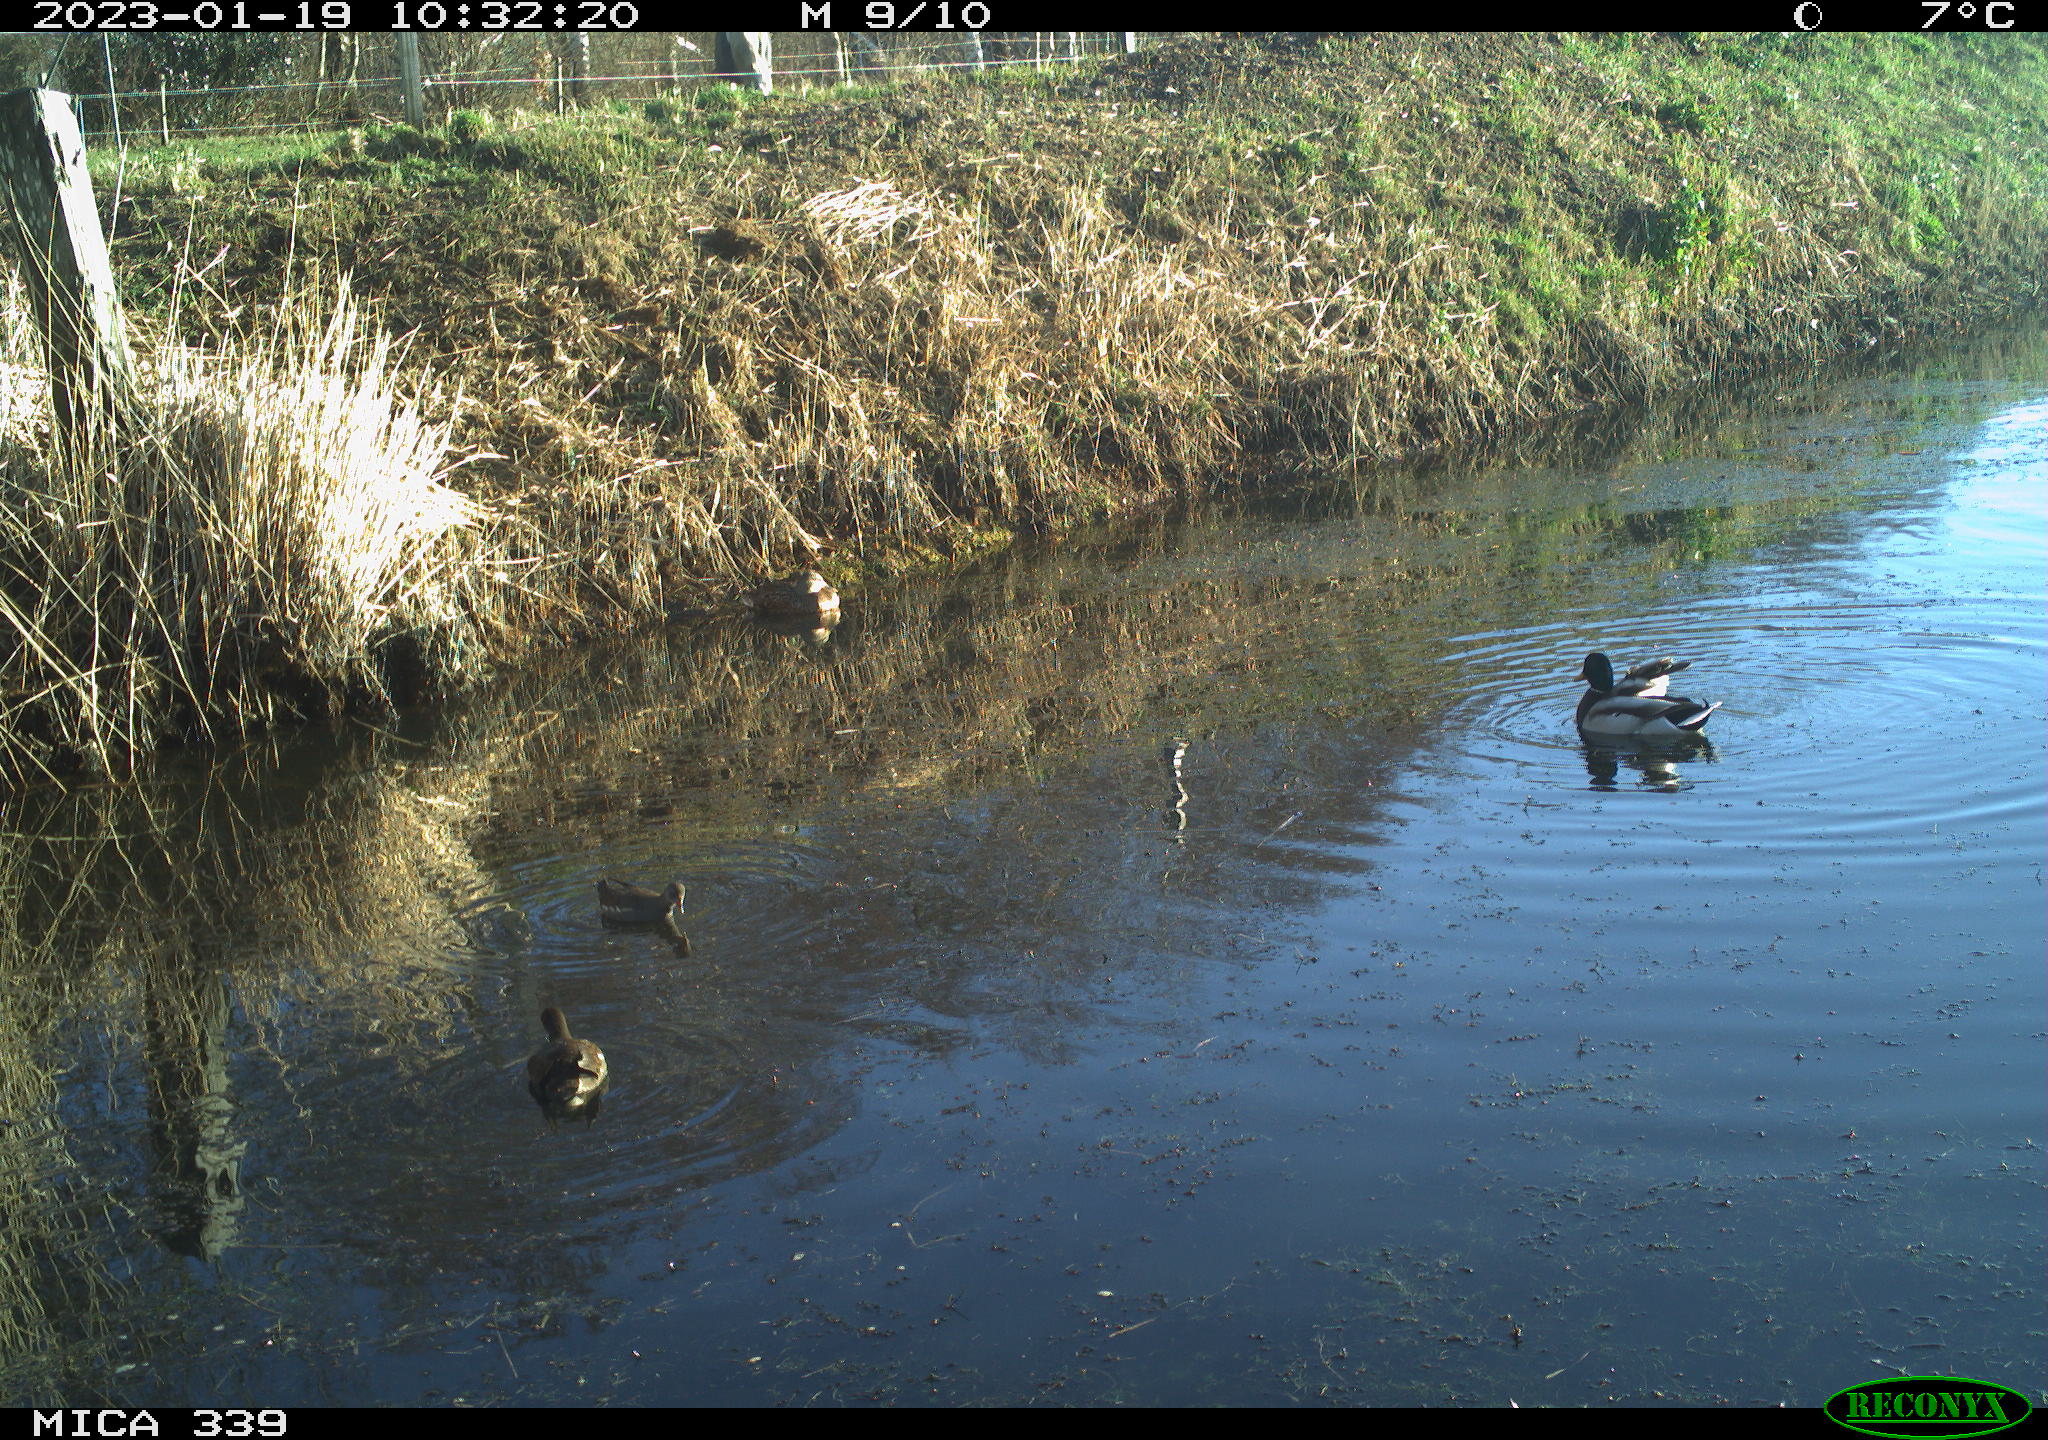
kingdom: Animalia
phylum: Chordata
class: Aves
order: Anseriformes
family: Anatidae
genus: Anas
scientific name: Anas
